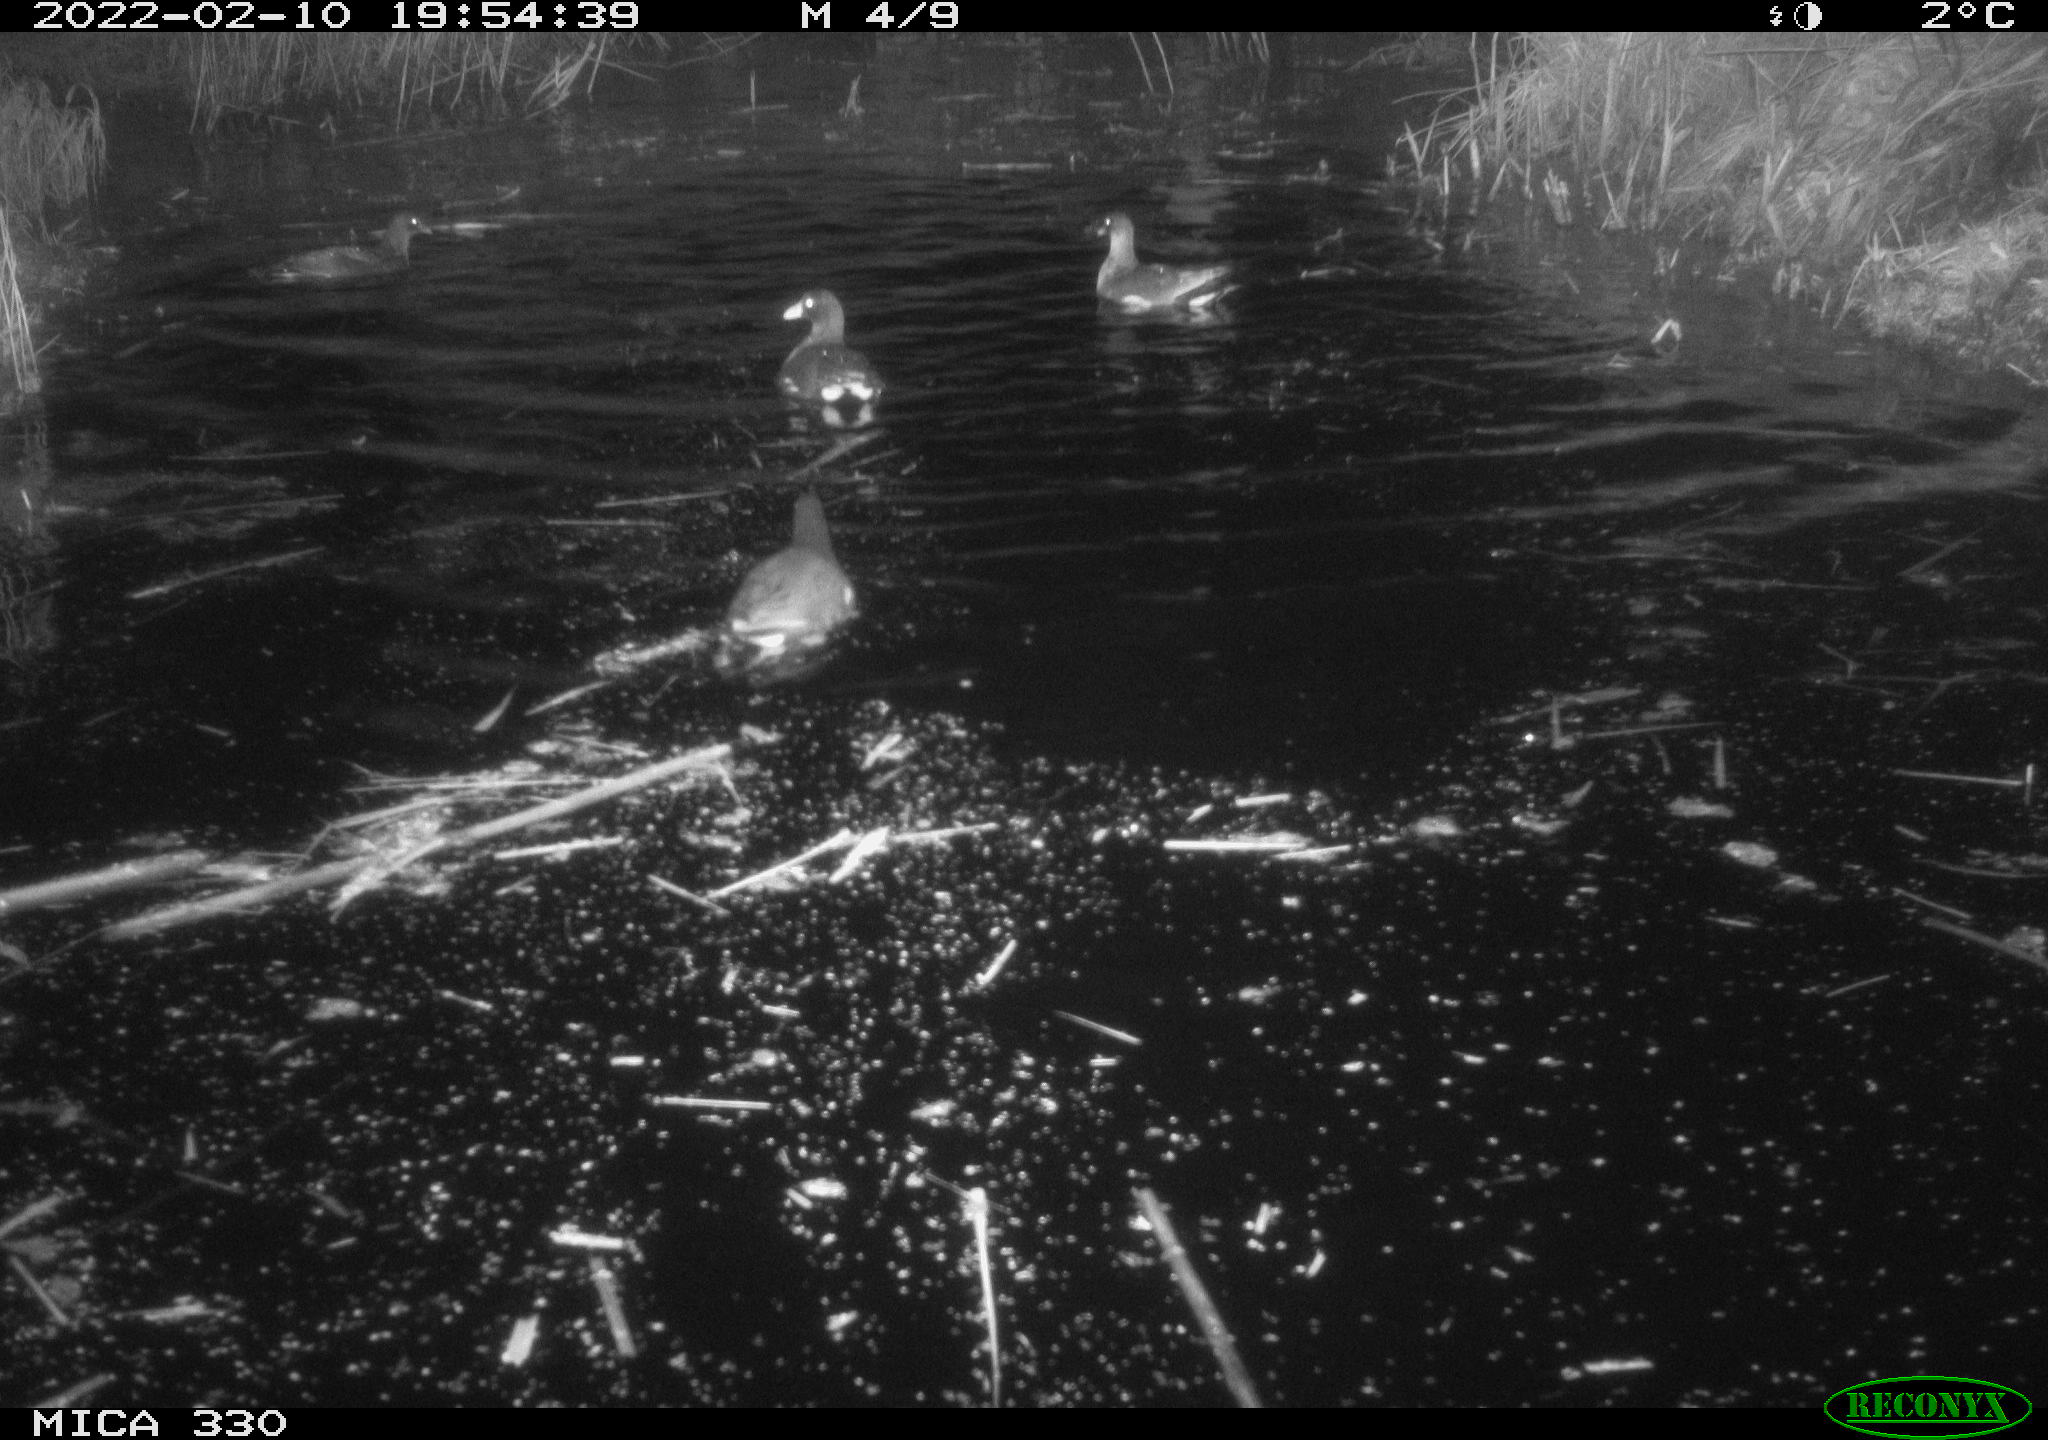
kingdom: Animalia
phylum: Chordata
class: Aves
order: Gruiformes
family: Rallidae
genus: Gallinula
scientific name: Gallinula chloropus
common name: Common moorhen
